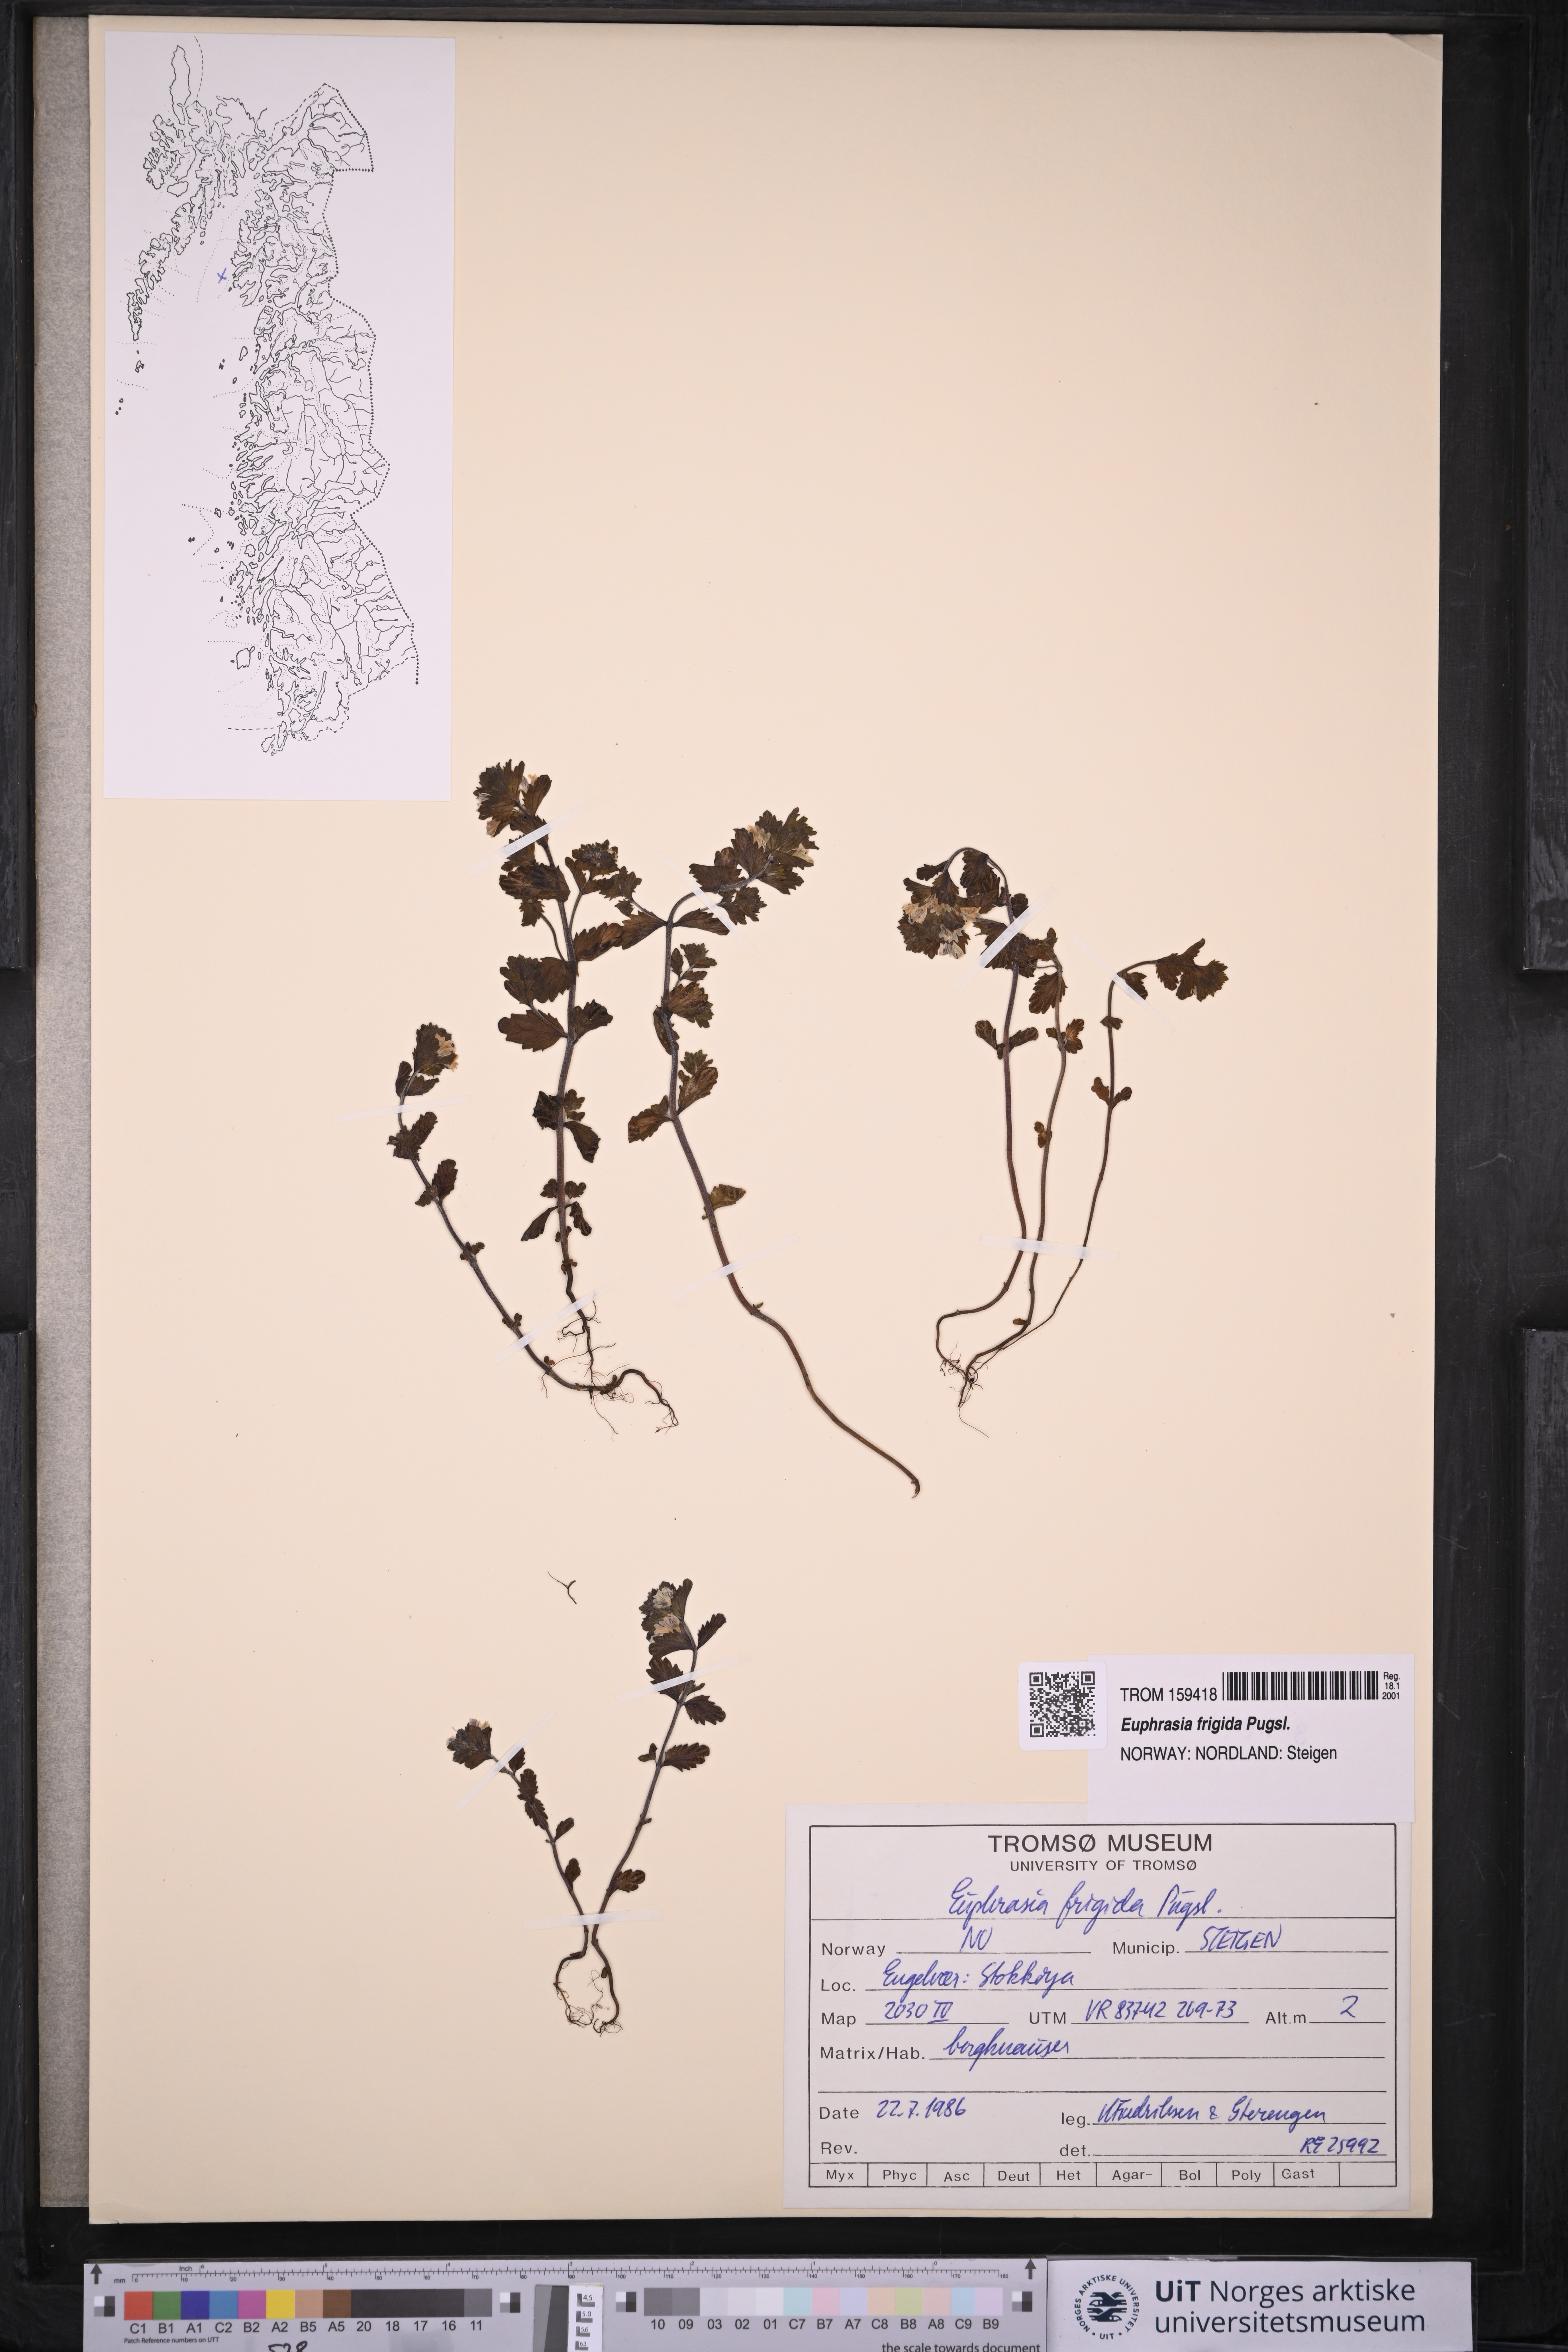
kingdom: Plantae
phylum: Tracheophyta
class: Magnoliopsida
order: Lamiales
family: Orobanchaceae
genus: Euphrasia
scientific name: Euphrasia frigida
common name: An eyebright
